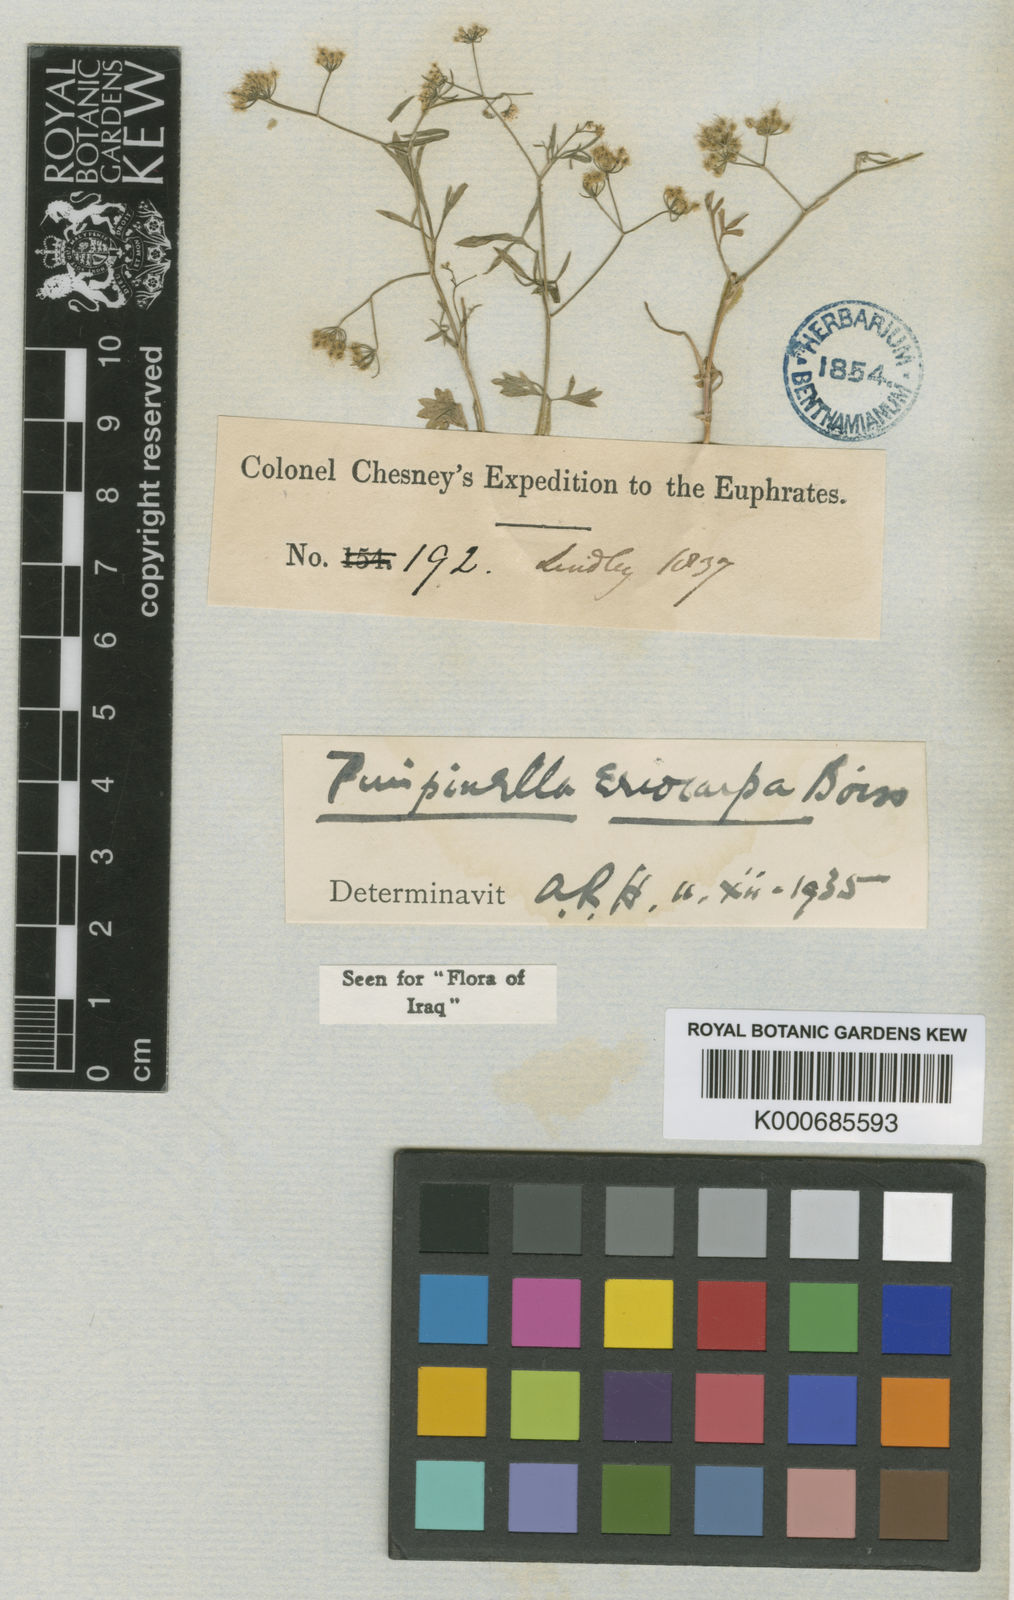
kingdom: Plantae
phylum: Tracheophyta
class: Magnoliopsida
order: Apiales
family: Apiaceae
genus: Pimpinella
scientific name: Pimpinella
